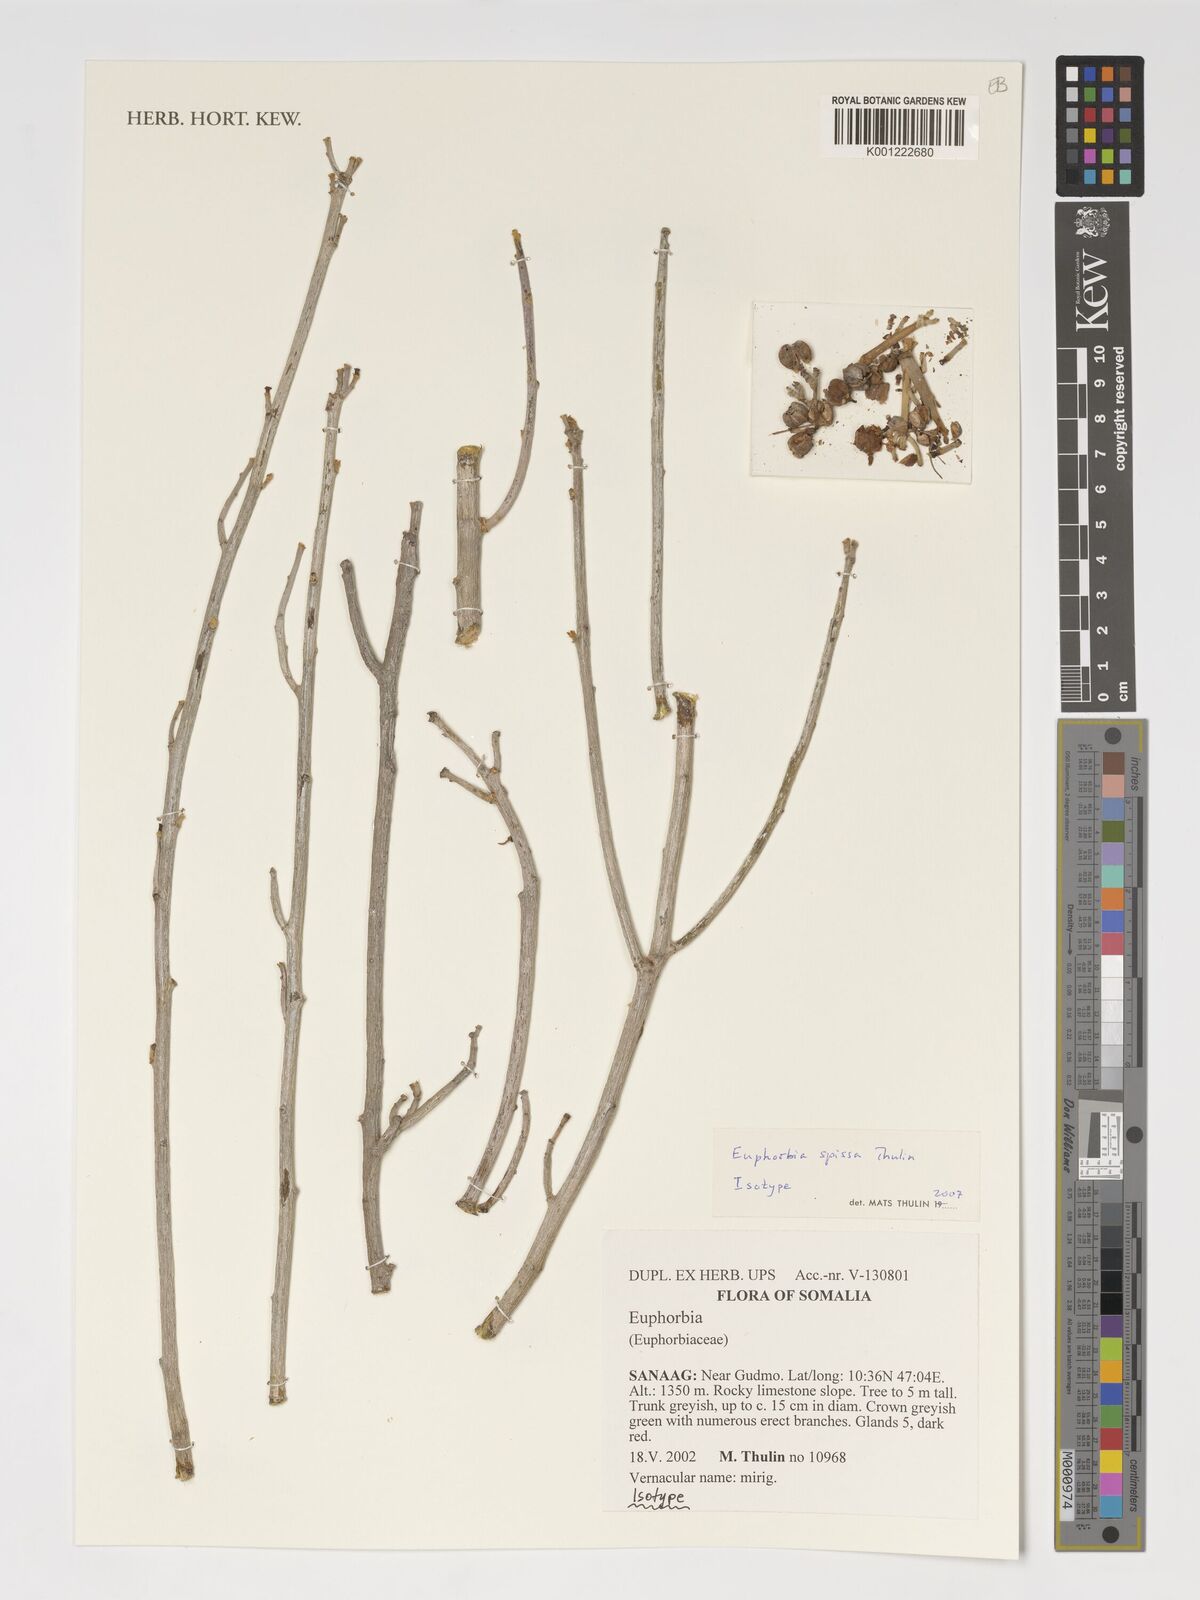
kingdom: Plantae
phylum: Tracheophyta
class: Magnoliopsida
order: Malpighiales
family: Euphorbiaceae
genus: Euphorbia
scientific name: Euphorbia spissa
